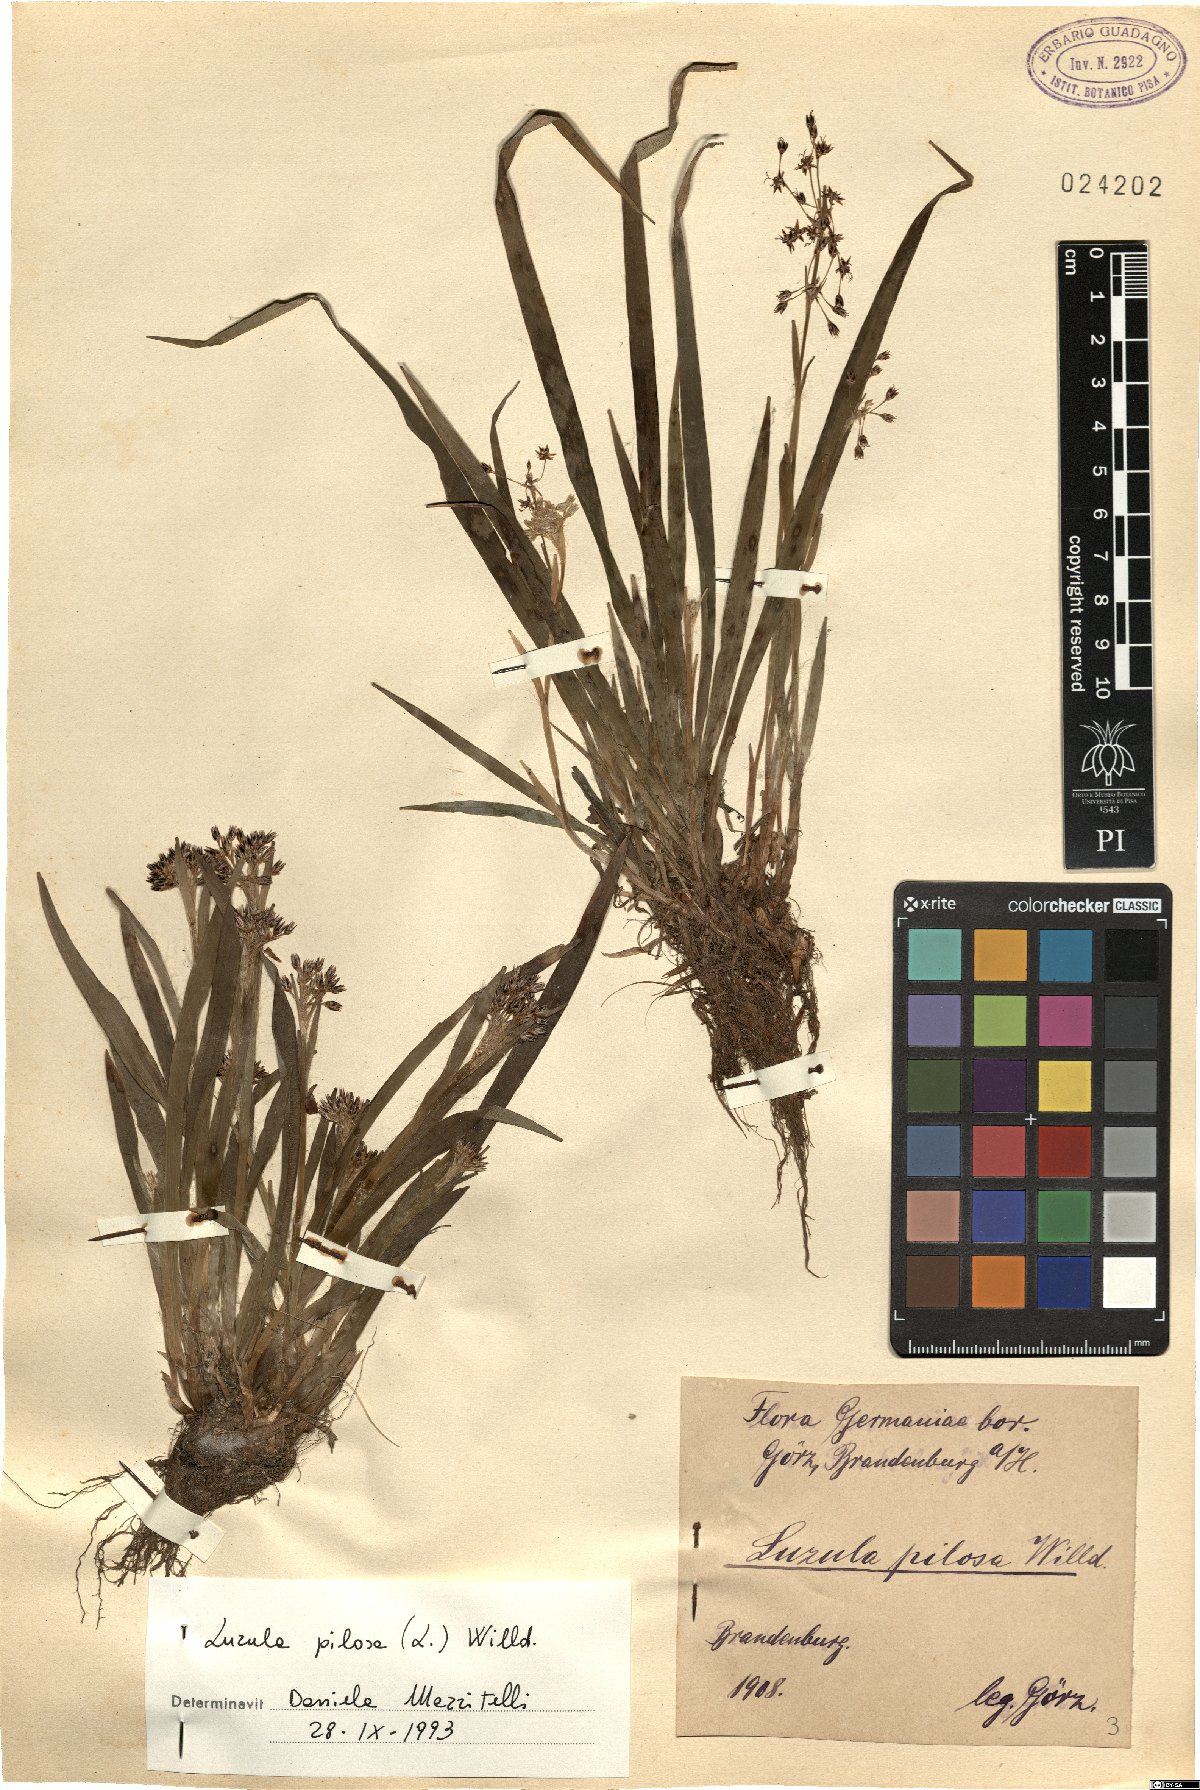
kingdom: Plantae
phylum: Tracheophyta
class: Liliopsida
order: Poales
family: Juncaceae
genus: Luzula
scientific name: Luzula pilosa
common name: Hairy wood-rush
